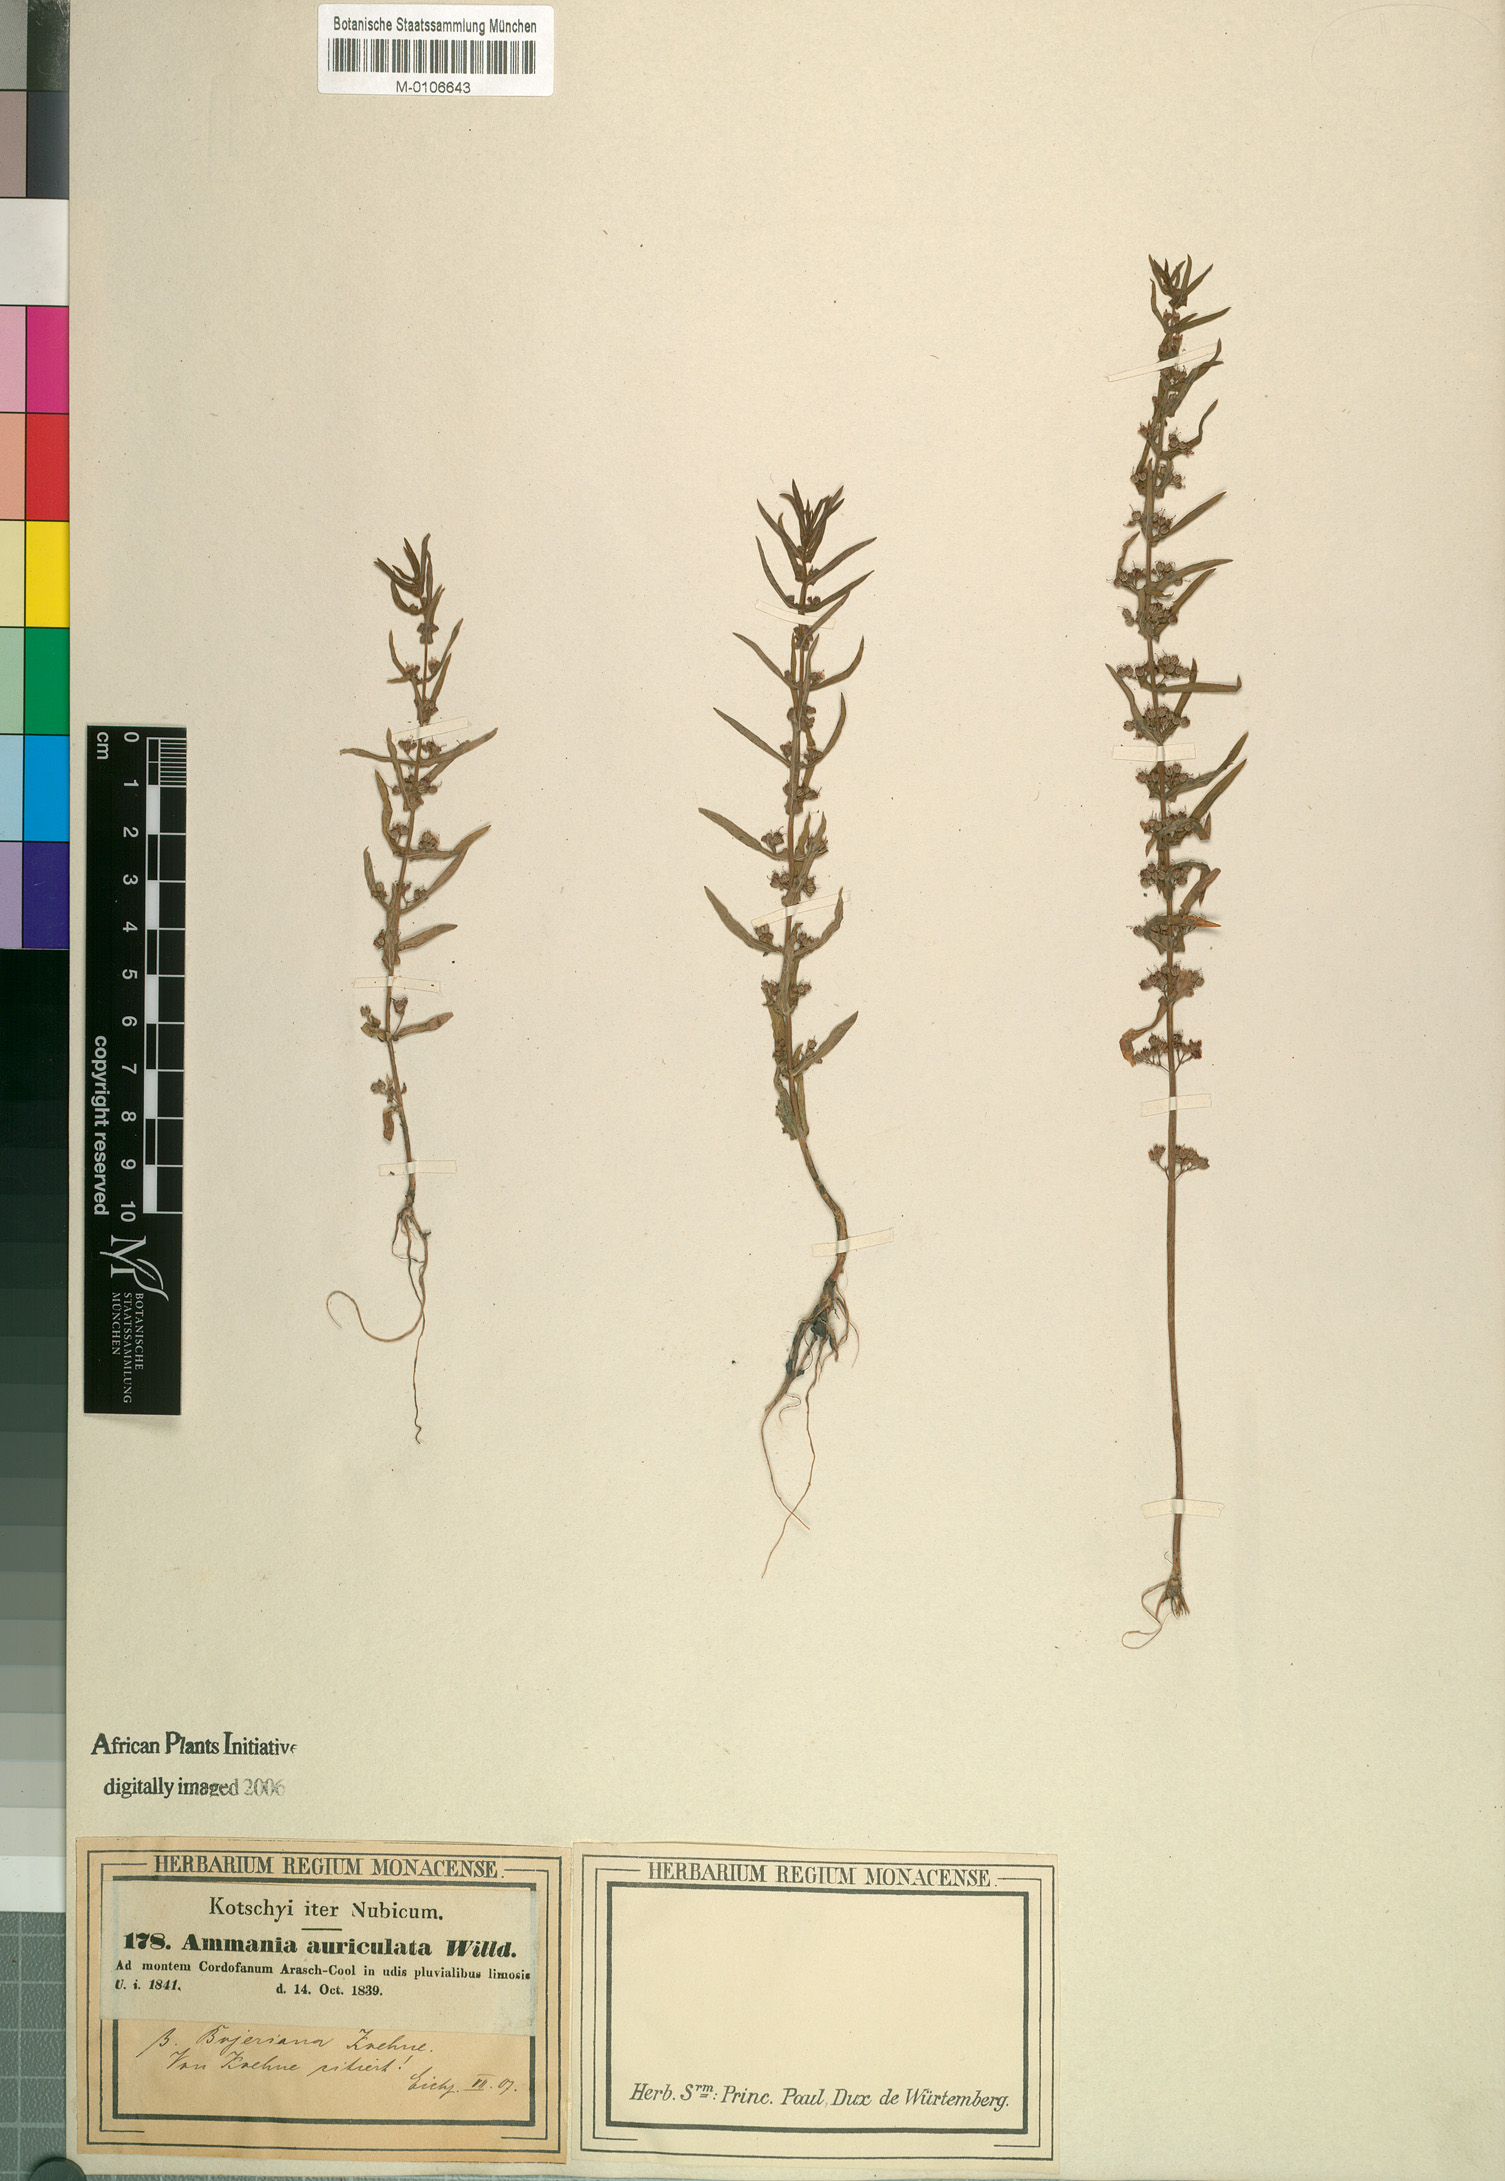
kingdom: Plantae
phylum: Tracheophyta
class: Magnoliopsida
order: Myrtales
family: Lythraceae
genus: Ammannia
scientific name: Ammannia auriculata
